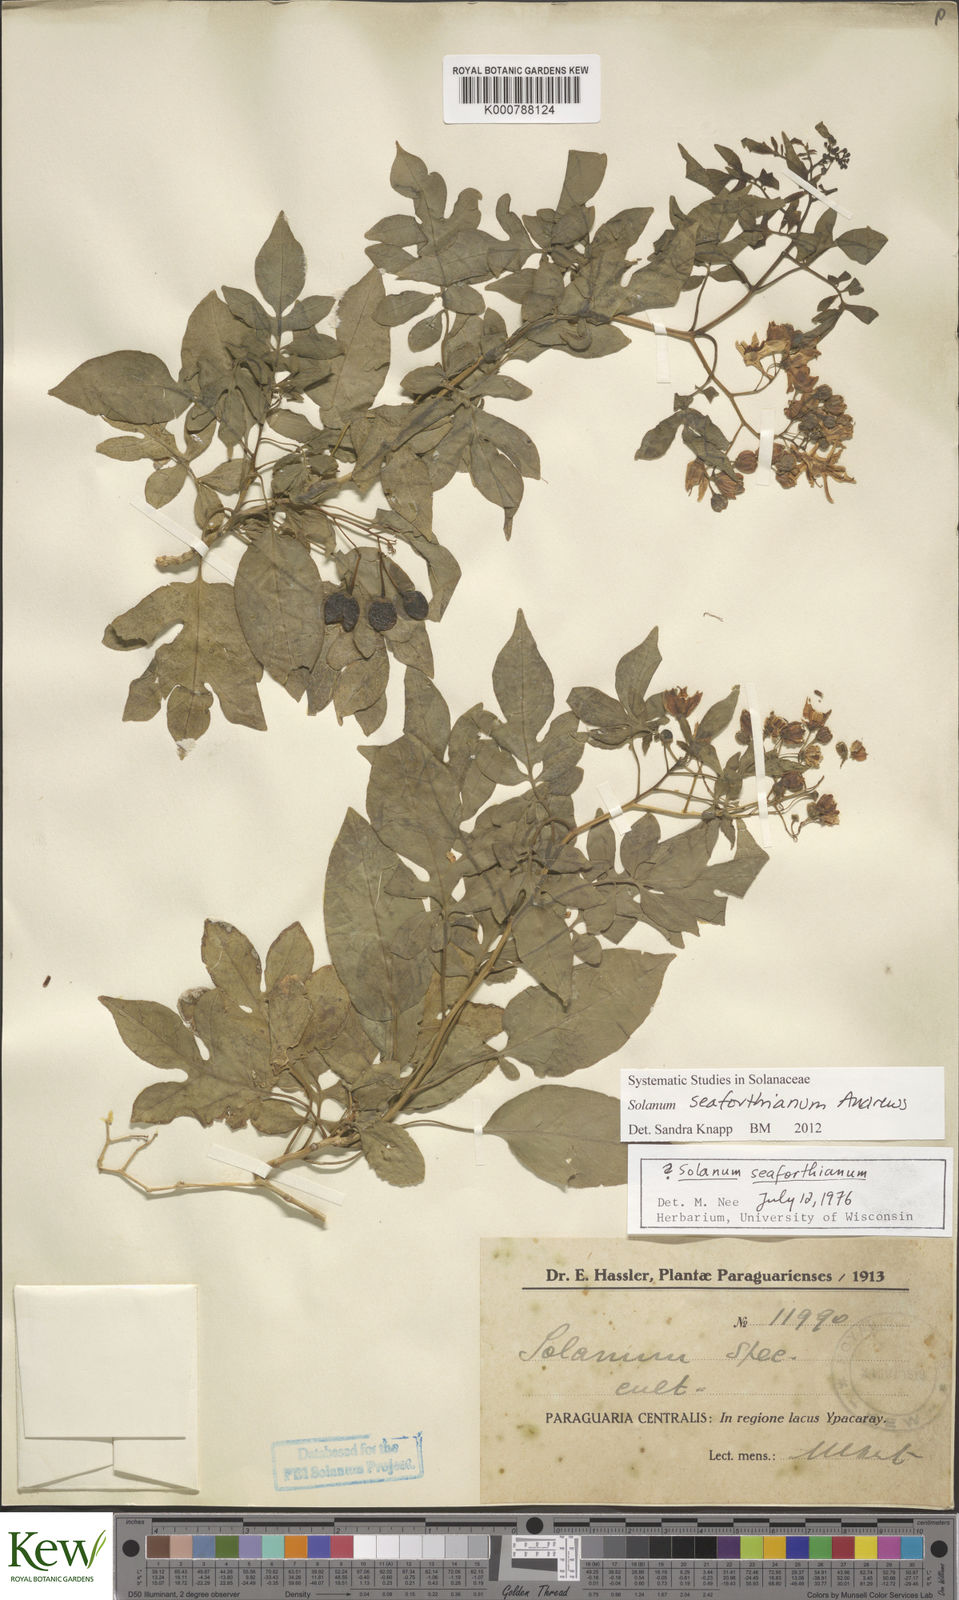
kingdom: Plantae
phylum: Tracheophyta
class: Magnoliopsida
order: Solanales
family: Solanaceae
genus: Solanum
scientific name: Solanum seaforthianum
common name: Brazilian nightshade
